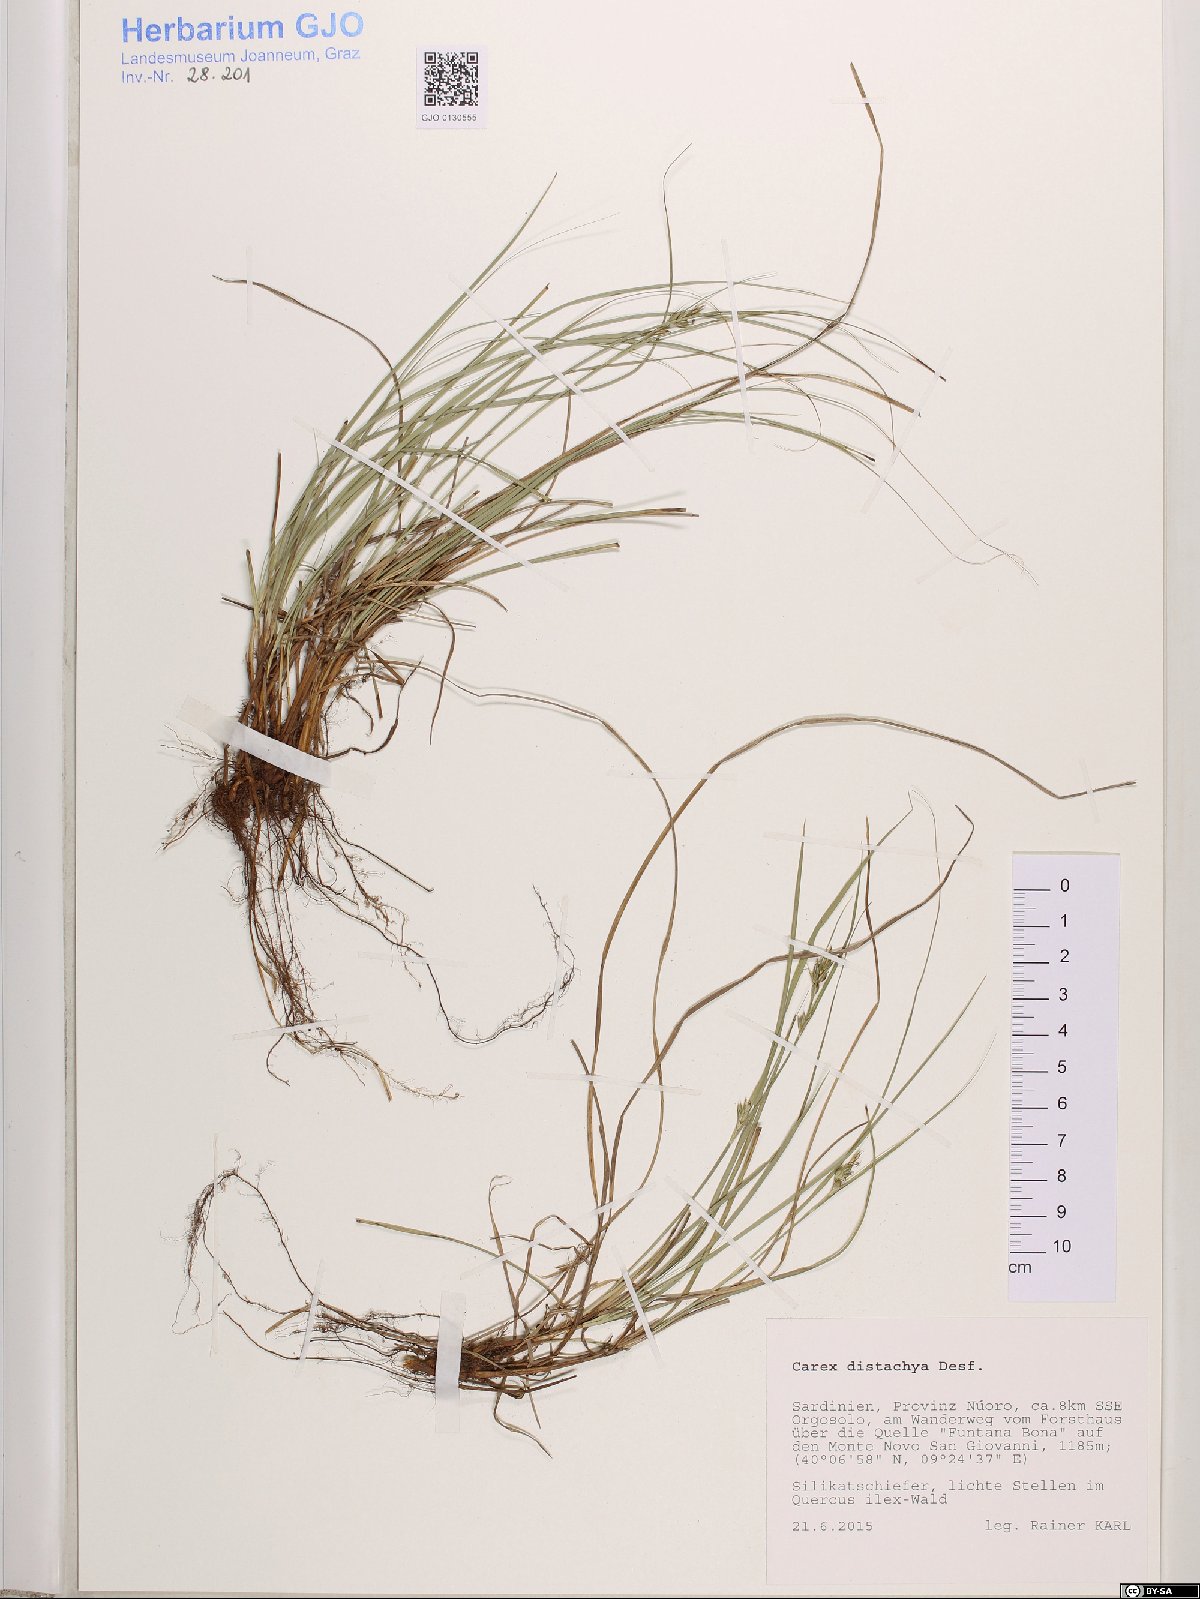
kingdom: Plantae
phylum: Tracheophyta
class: Liliopsida
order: Poales
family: Cyperaceae
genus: Carex
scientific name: Carex distachya
